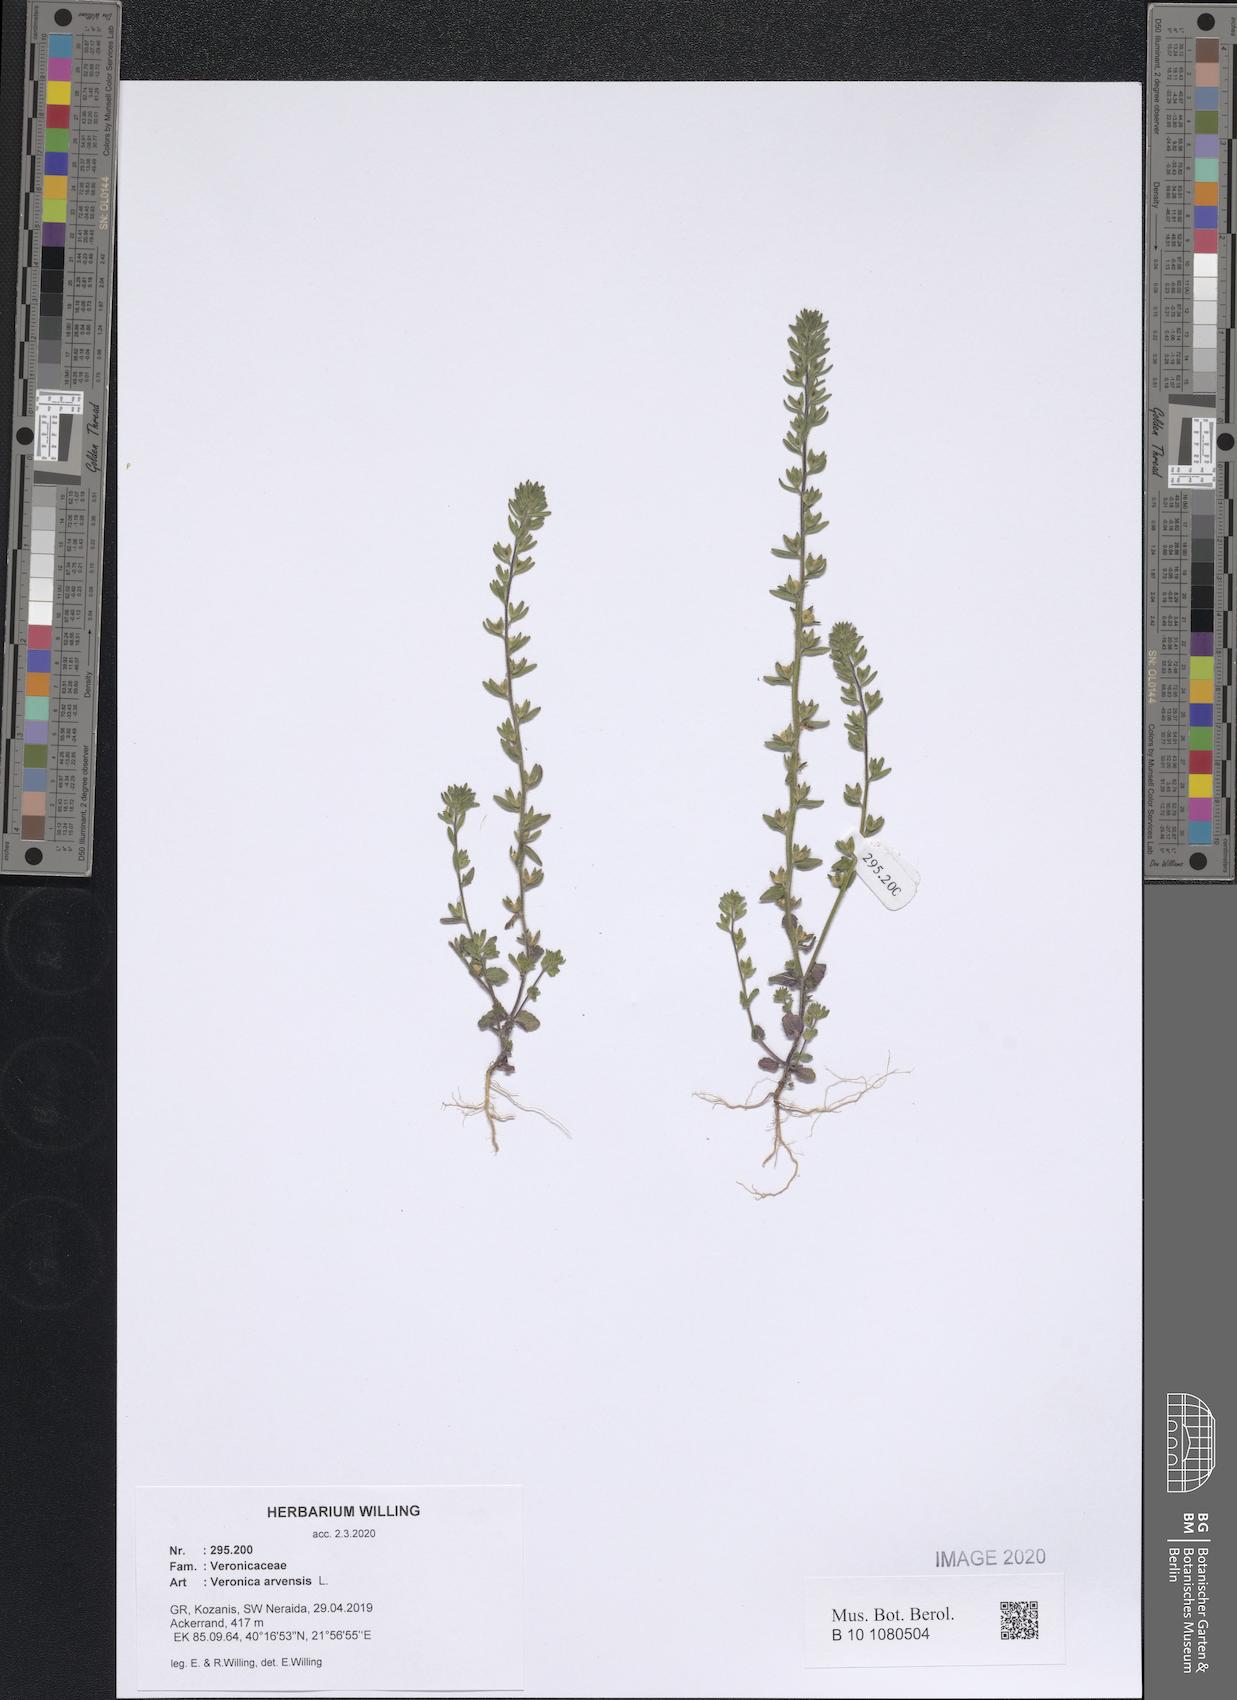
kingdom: Plantae
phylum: Tracheophyta
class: Magnoliopsida
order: Lamiales
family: Plantaginaceae
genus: Veronica
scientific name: Veronica arvensis
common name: Corn speedwell
